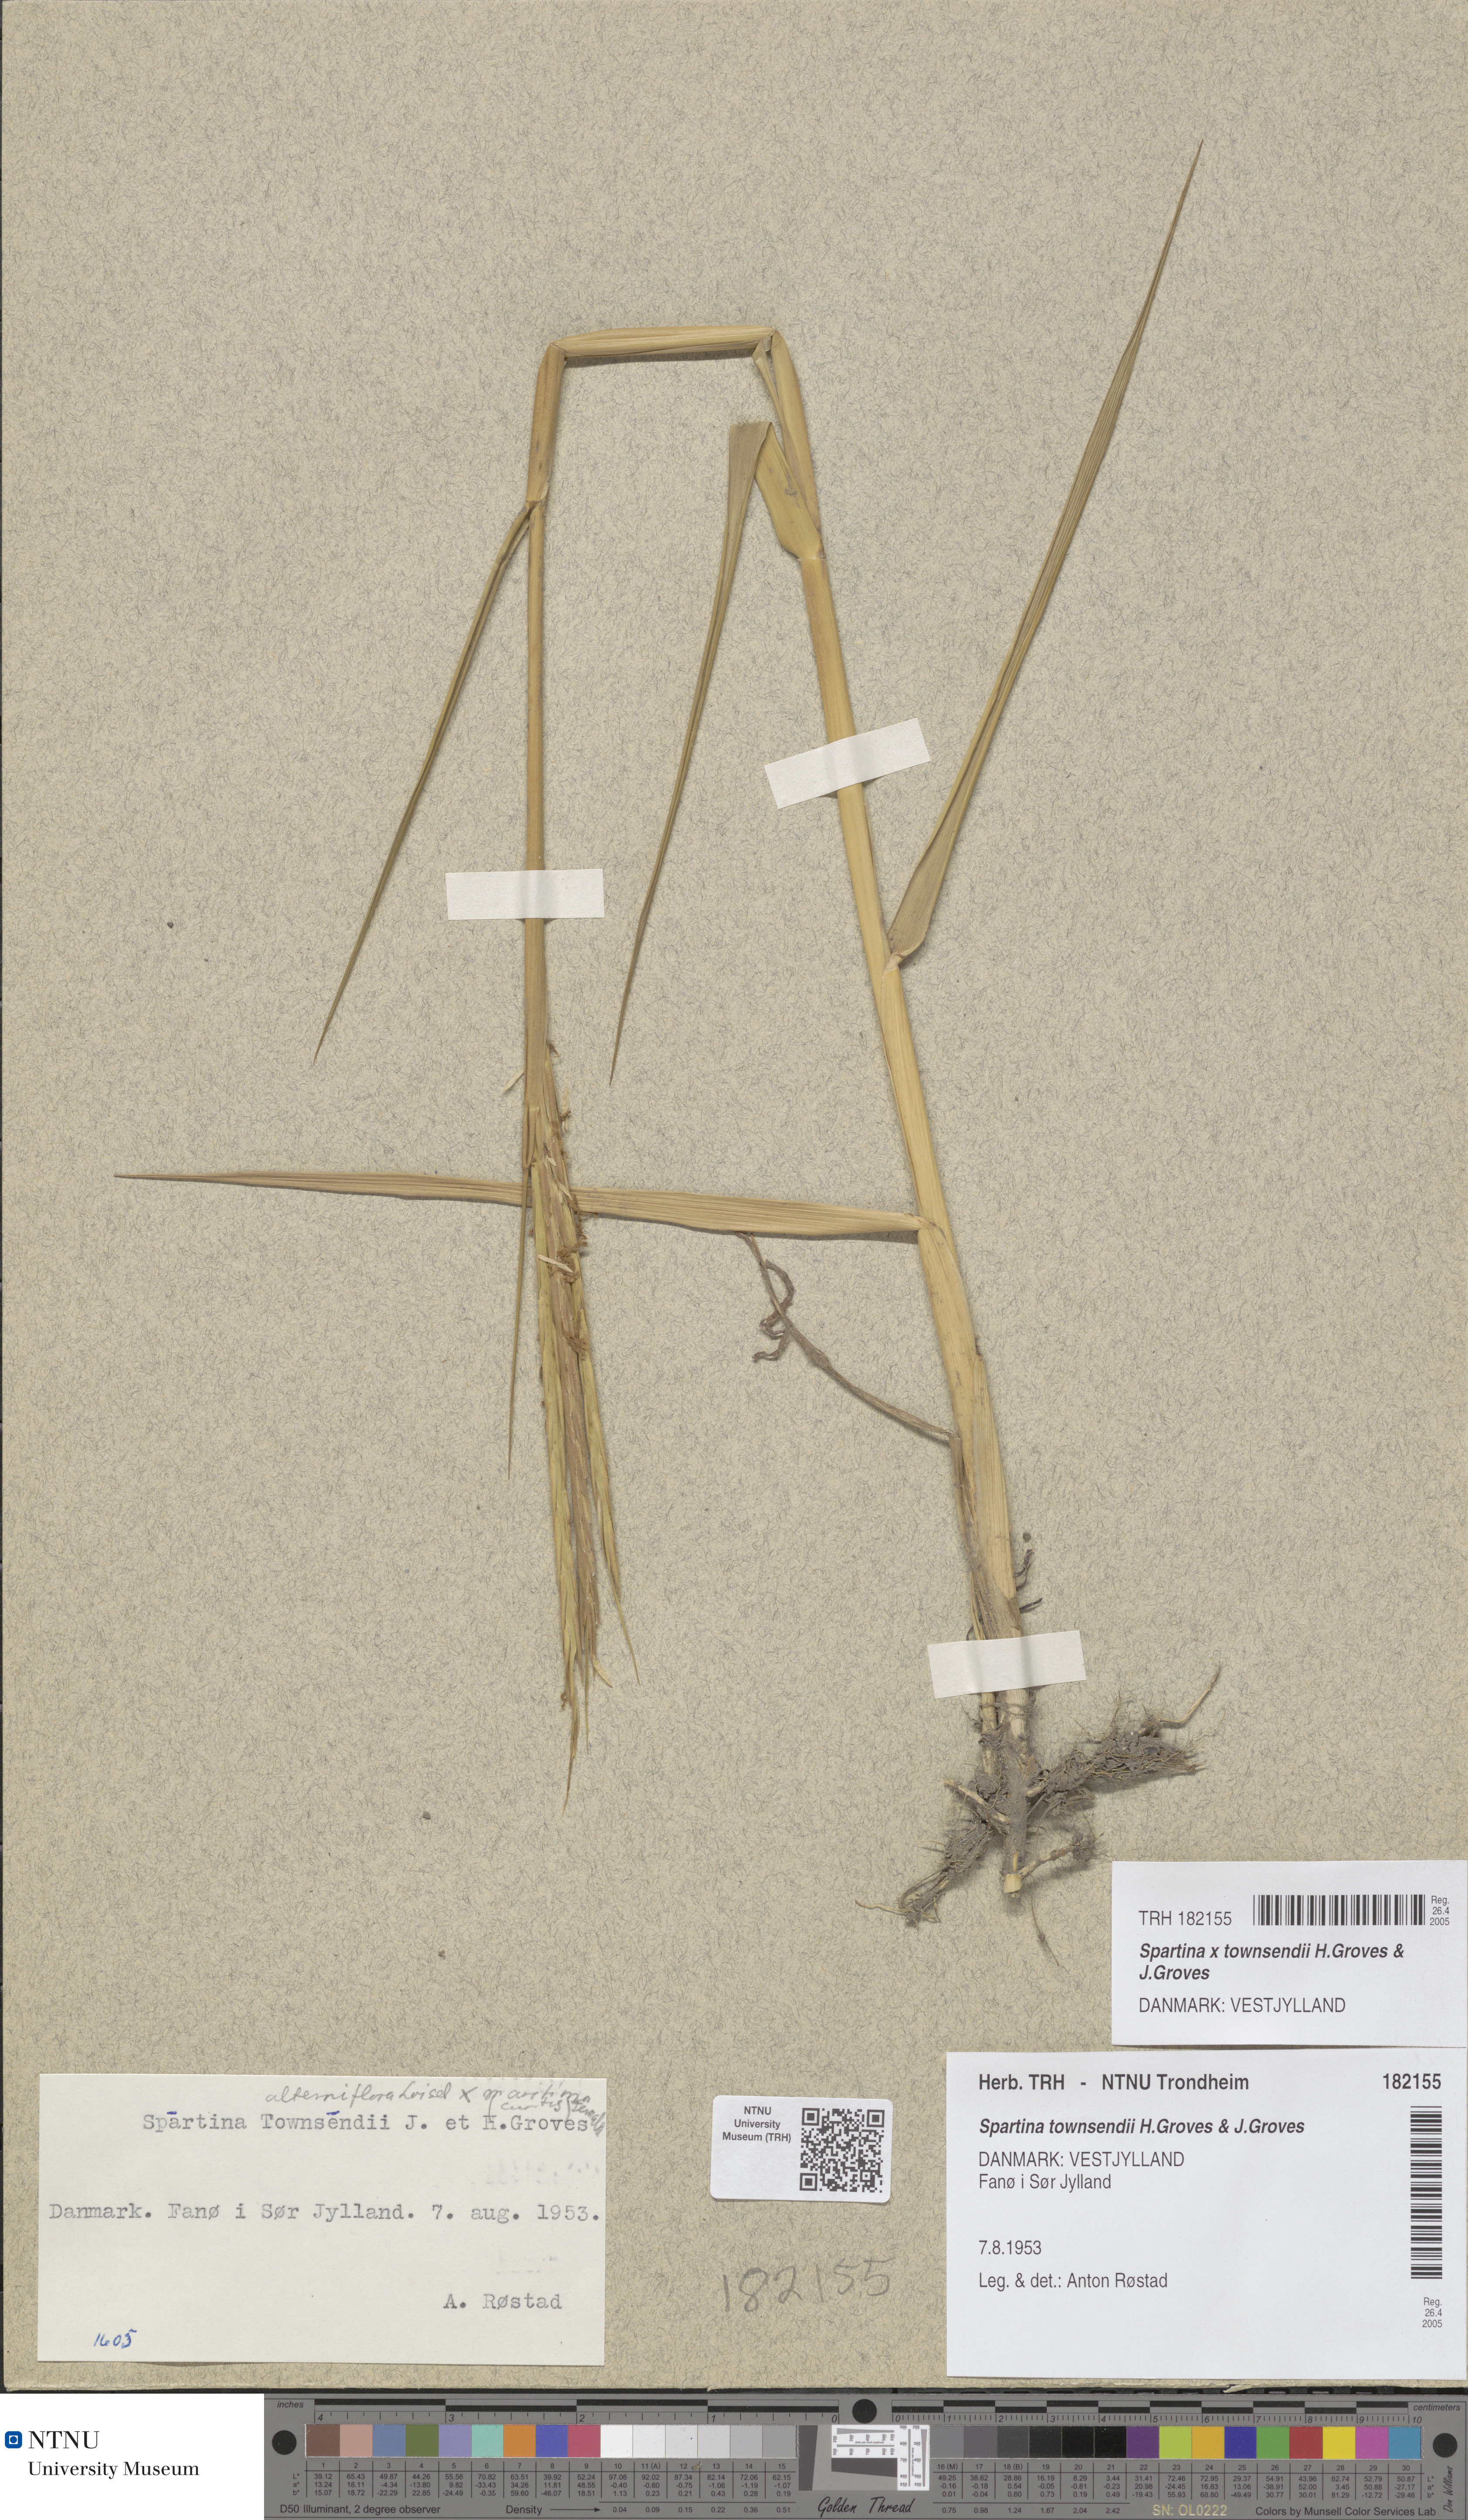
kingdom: Plantae
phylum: Tracheophyta
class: Liliopsida
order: Poales
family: Poaceae
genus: Sporobolus
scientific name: Sporobolus townsendii
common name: Townsend's cordgrass
